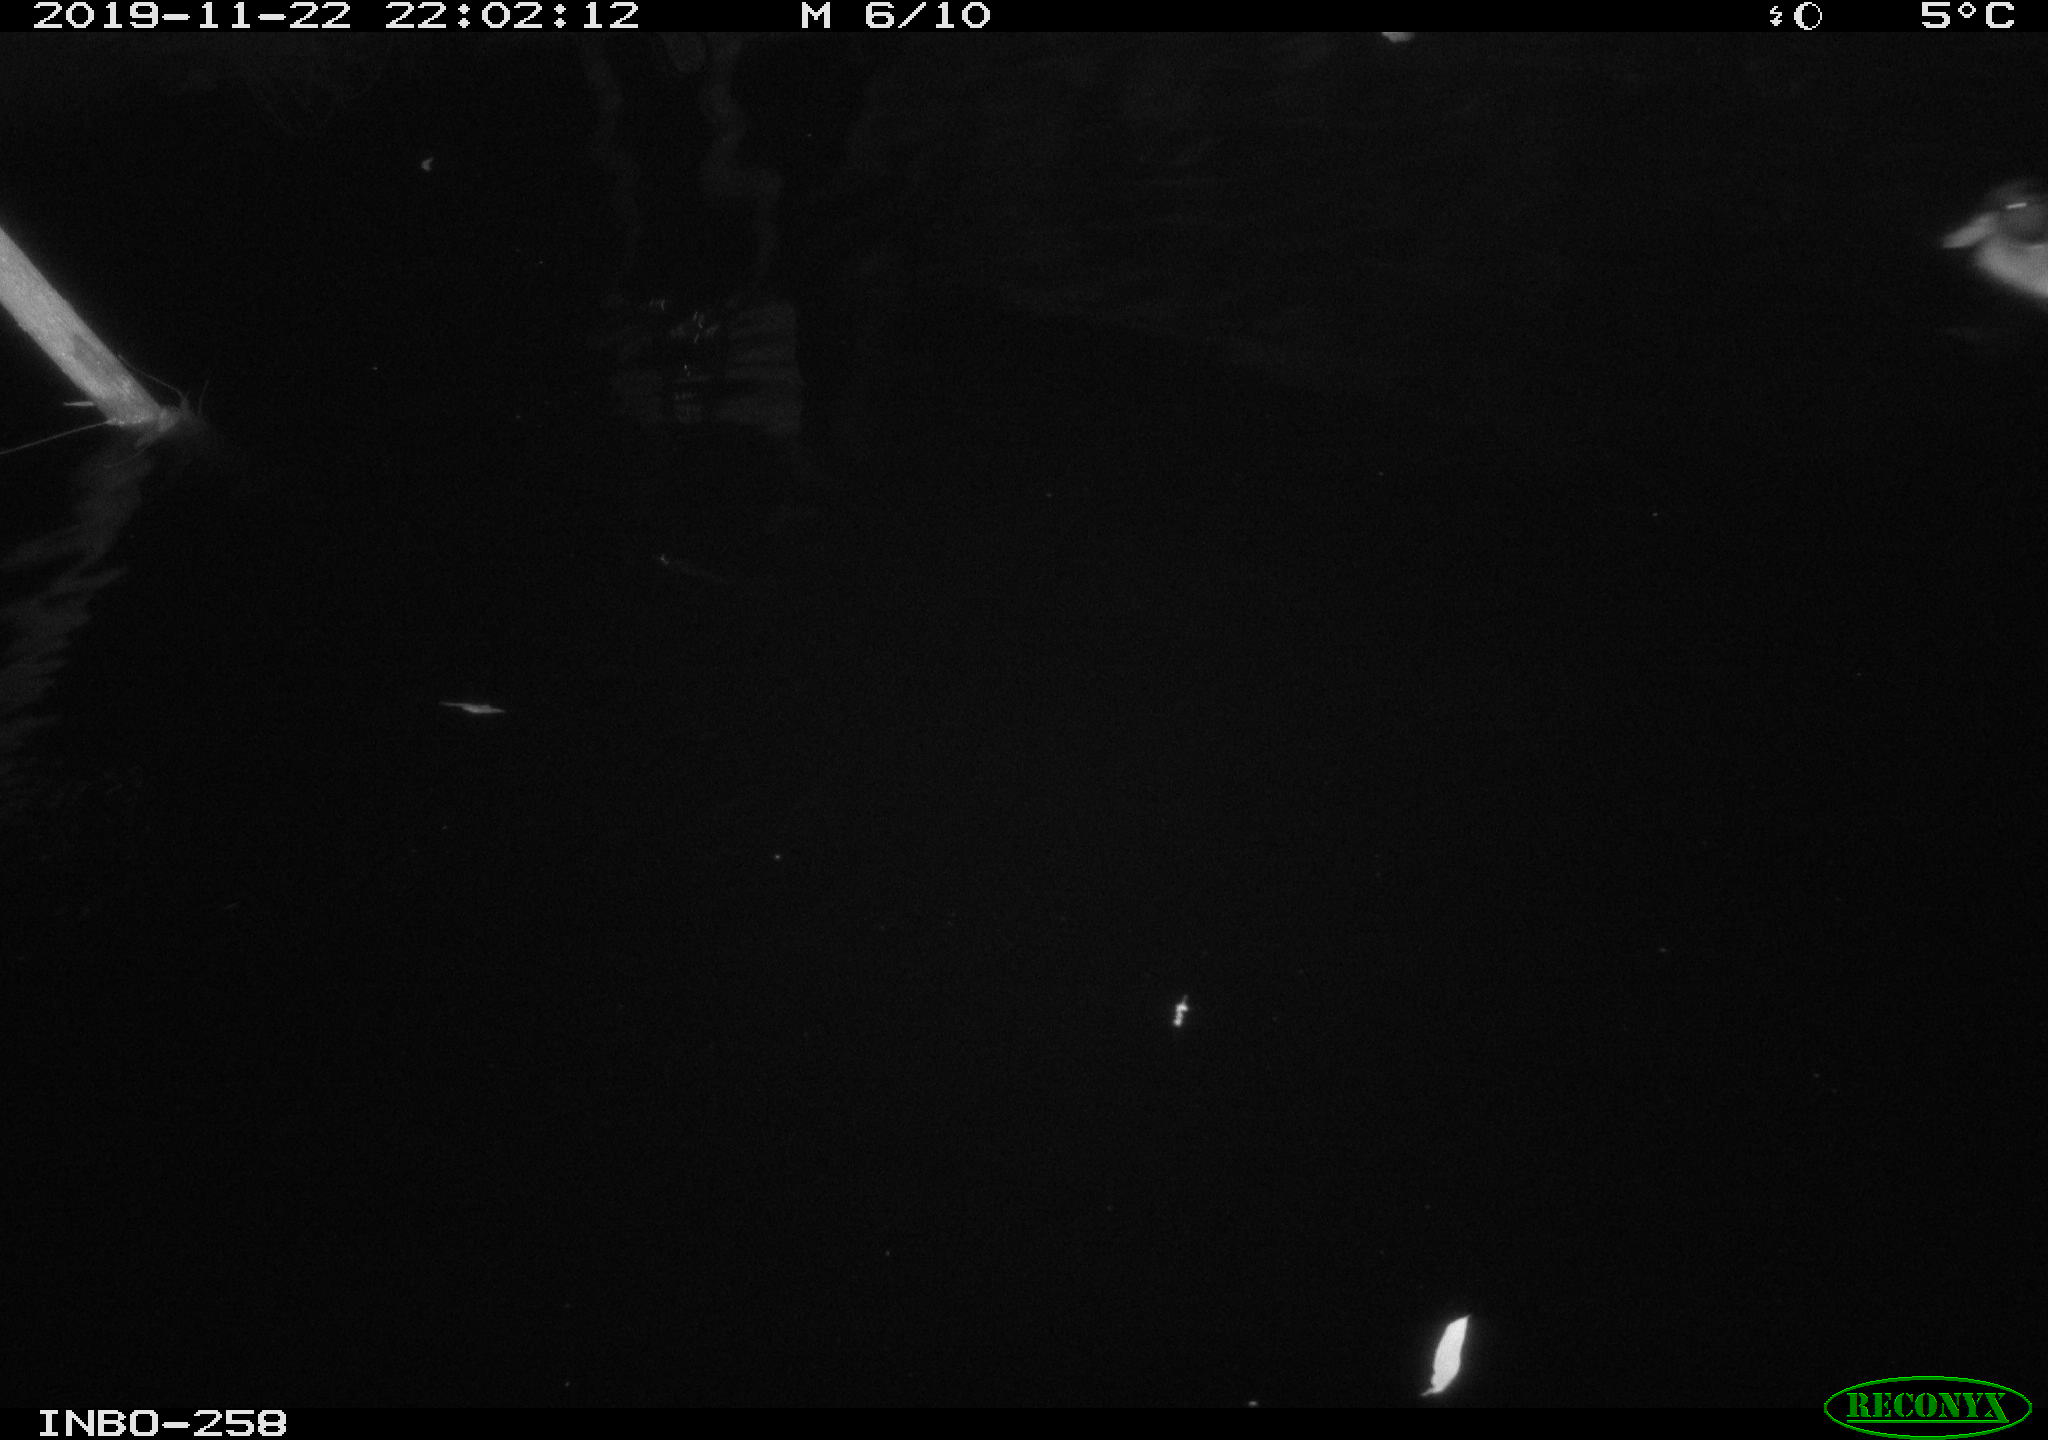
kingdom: Animalia
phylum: Chordata
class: Aves
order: Anseriformes
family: Anatidae
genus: Anas
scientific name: Anas platyrhynchos
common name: Mallard
